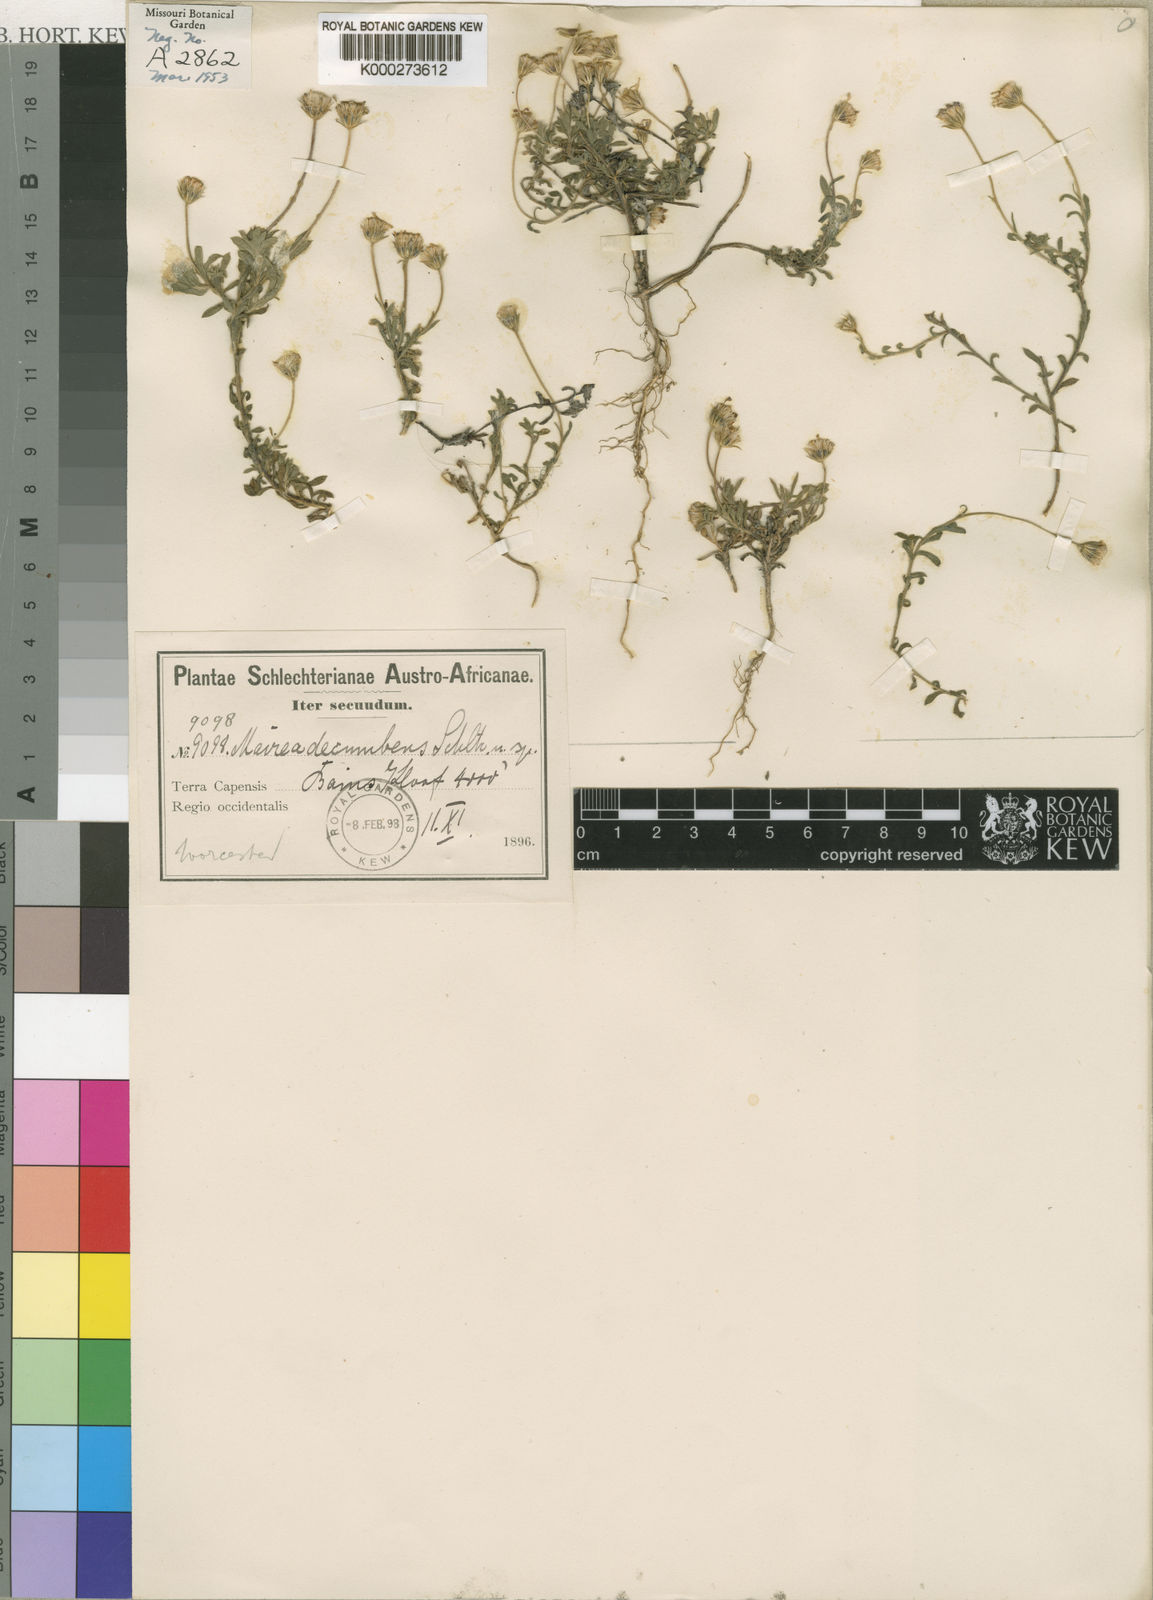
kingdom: Plantae
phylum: Tracheophyta
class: Magnoliopsida
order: Asterales
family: Asteraceae
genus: Zyrphelis
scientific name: Zyrphelis decumbens
